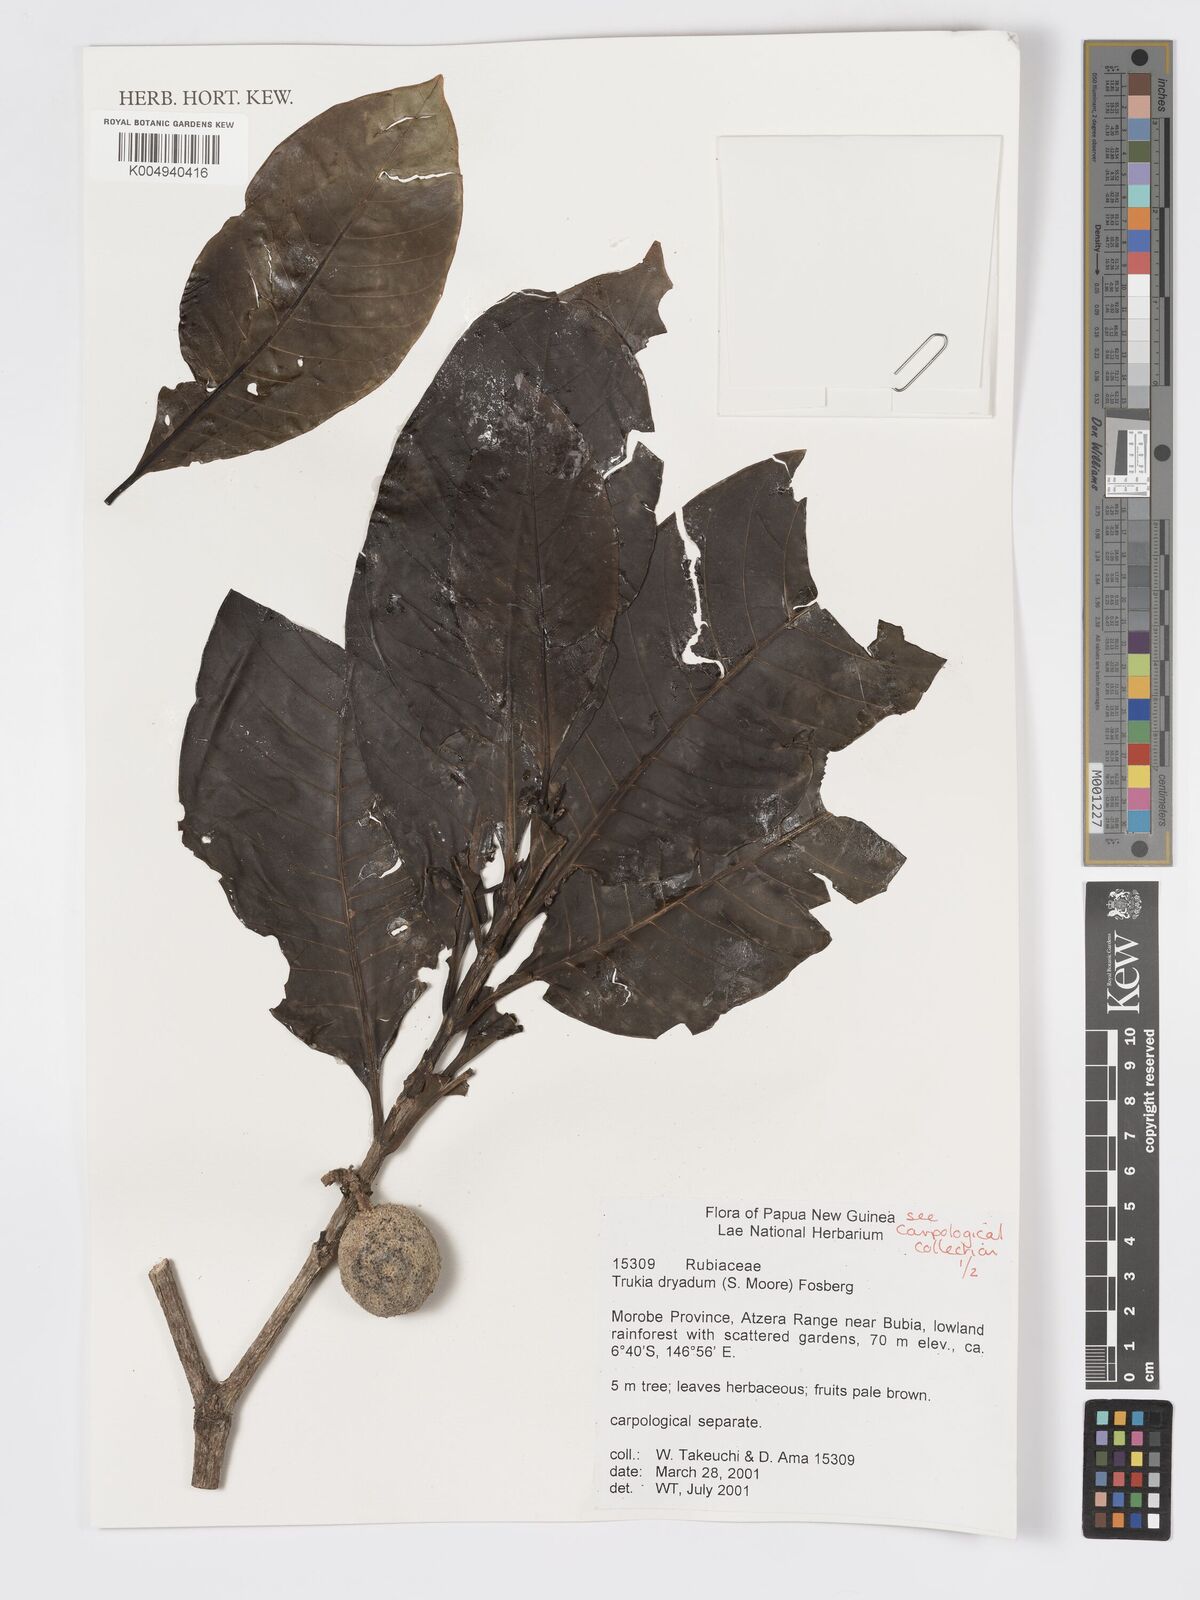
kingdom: Plantae
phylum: Tracheophyta
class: Magnoliopsida
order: Gentianales
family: Rubiaceae
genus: Atractocarpus
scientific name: Atractocarpus macarthurii
